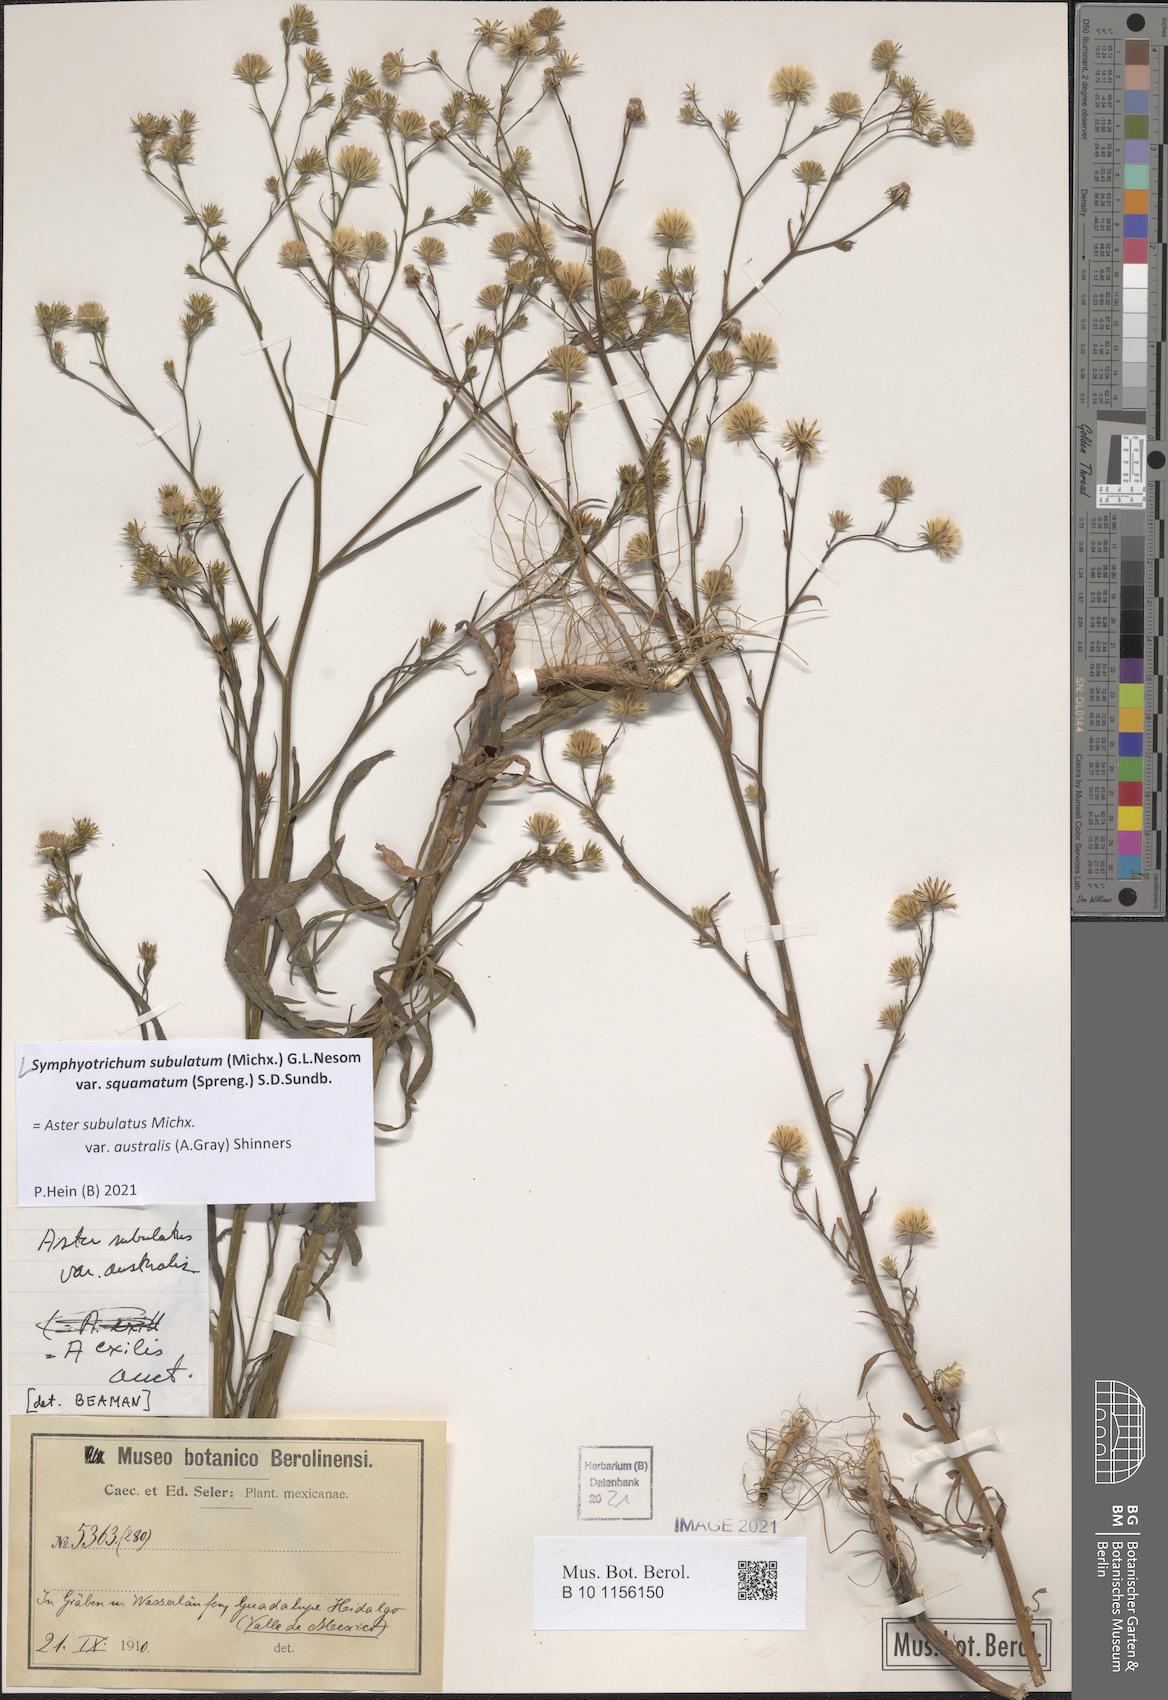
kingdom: Plantae
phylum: Tracheophyta
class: Magnoliopsida
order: Asterales
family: Asteraceae
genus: Symphyotrichum
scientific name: Symphyotrichum squamatum
